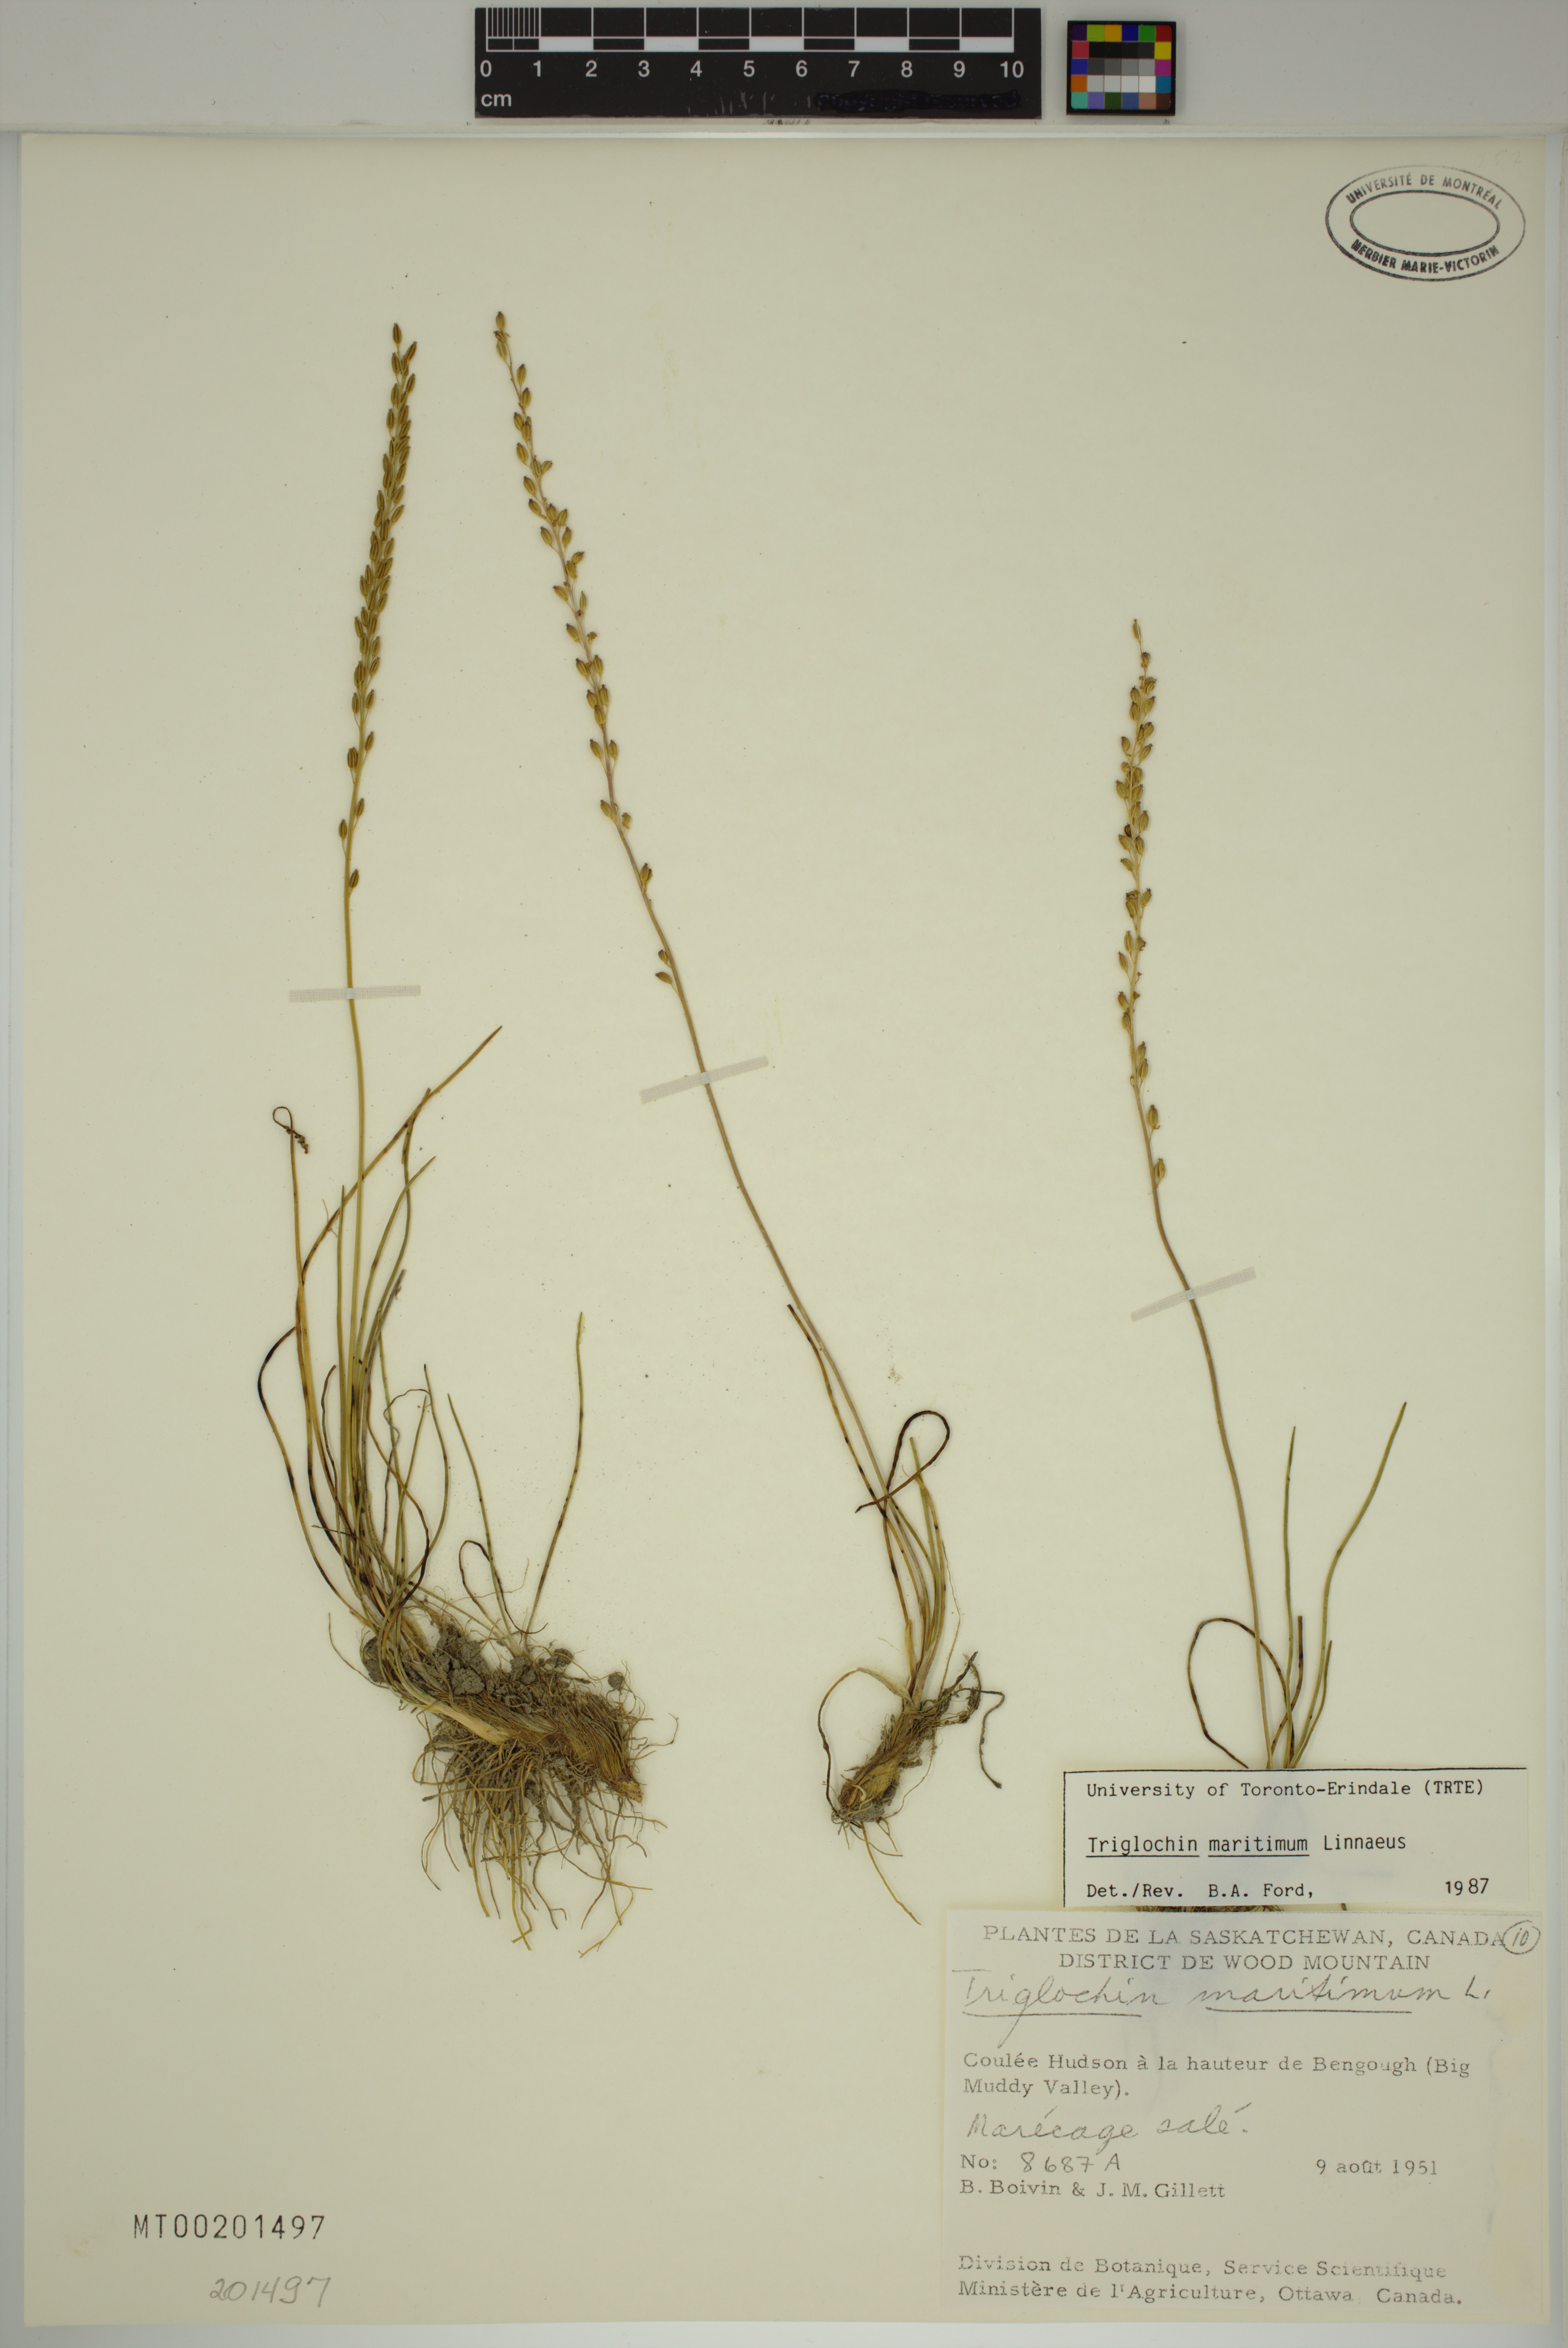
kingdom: Plantae
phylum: Tracheophyta
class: Liliopsida
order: Alismatales
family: Juncaginaceae
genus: Triglochin
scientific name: Triglochin maritima
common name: Sea arrowgrass
